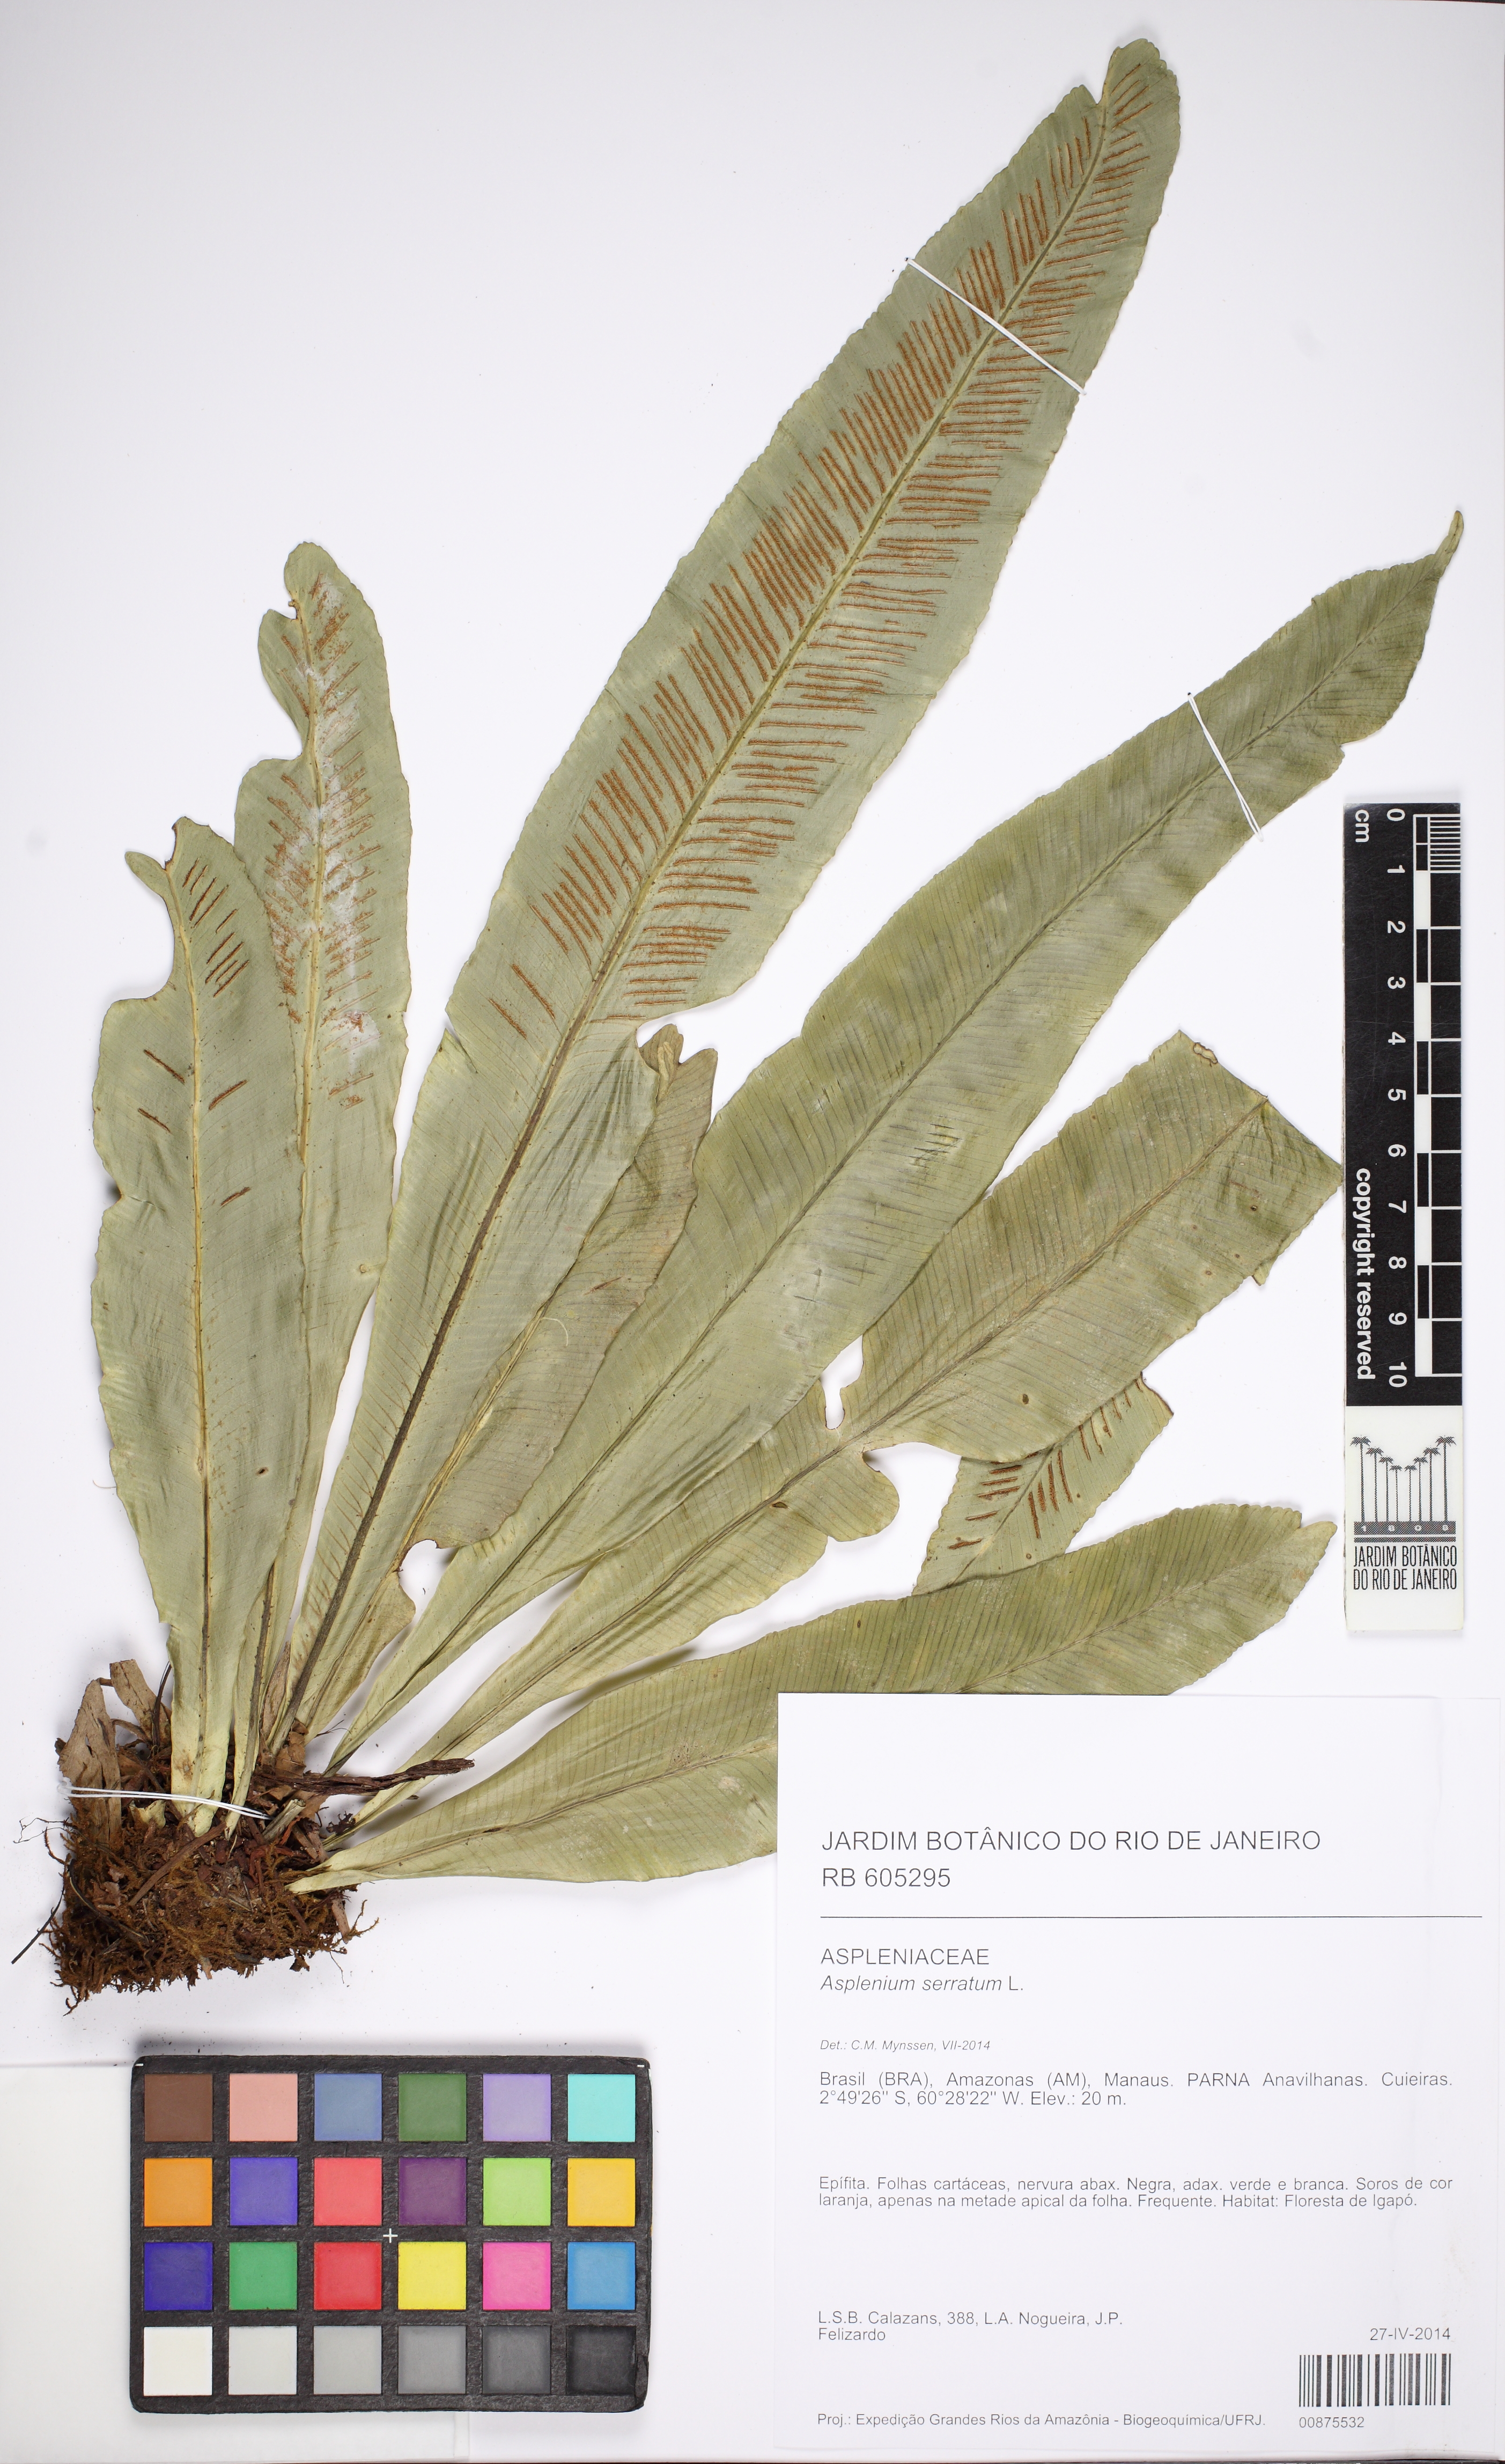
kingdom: Plantae
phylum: Tracheophyta
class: Polypodiopsida
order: Polypodiales
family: Aspleniaceae
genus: Asplenium
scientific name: Asplenium serratum
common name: Wild birdnest fern
